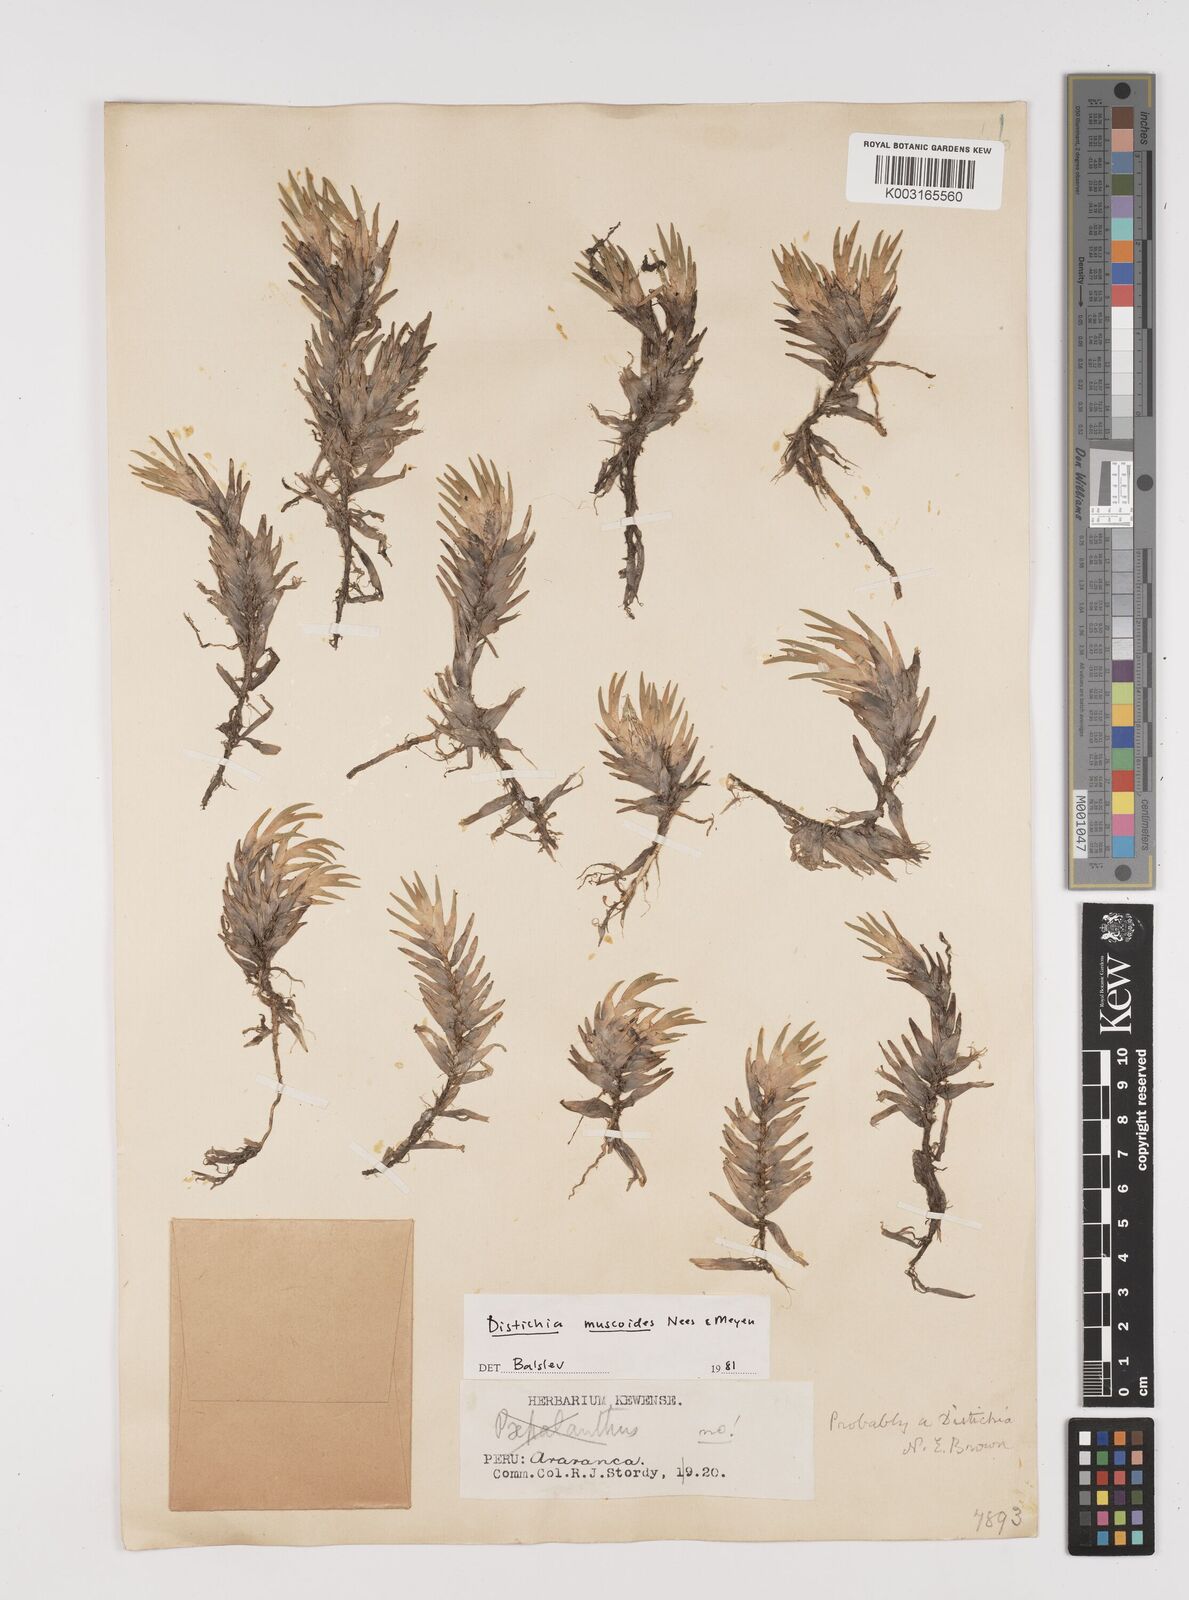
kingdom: Plantae
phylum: Tracheophyta
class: Liliopsida
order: Poales
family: Juncaceae
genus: Distichia
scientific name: Distichia muscoides
